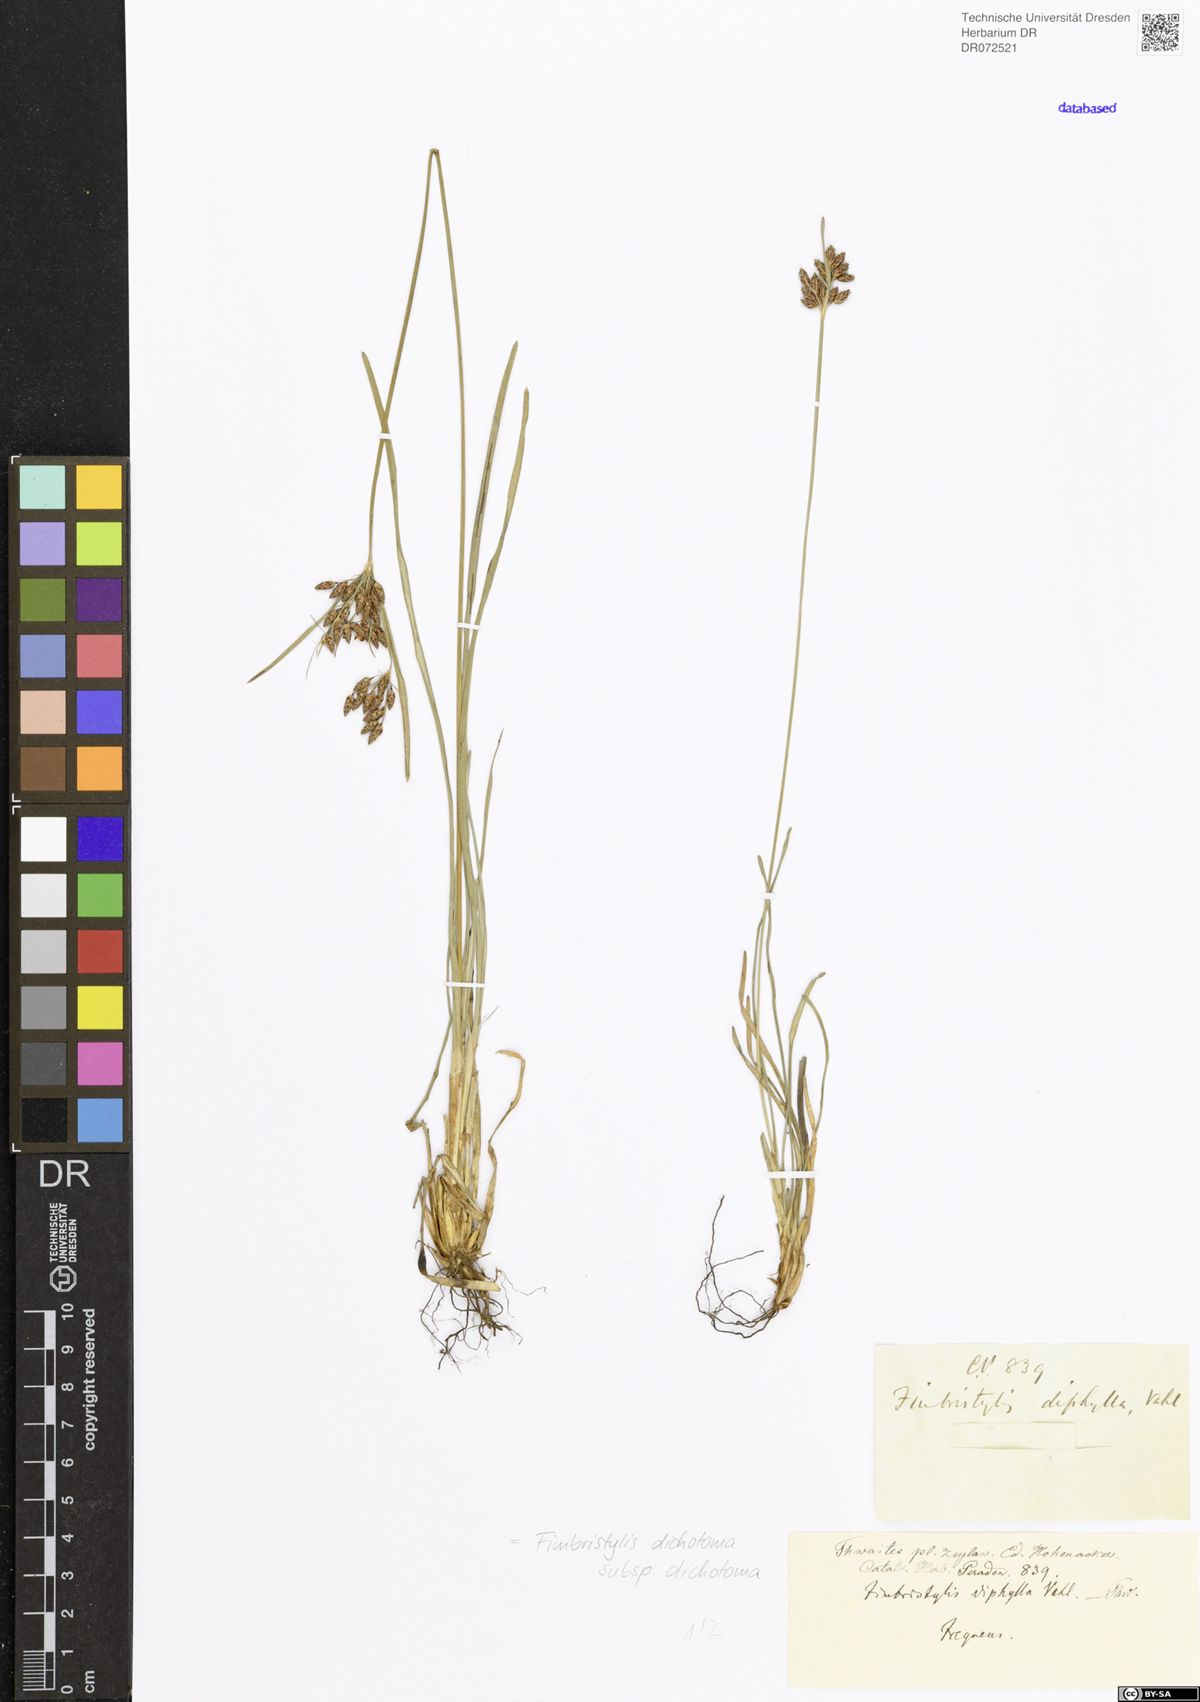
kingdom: Plantae
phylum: Tracheophyta
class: Liliopsida
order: Poales
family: Cyperaceae
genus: Fimbristylis
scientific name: Fimbristylis dichotoma
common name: Forked fimbry
